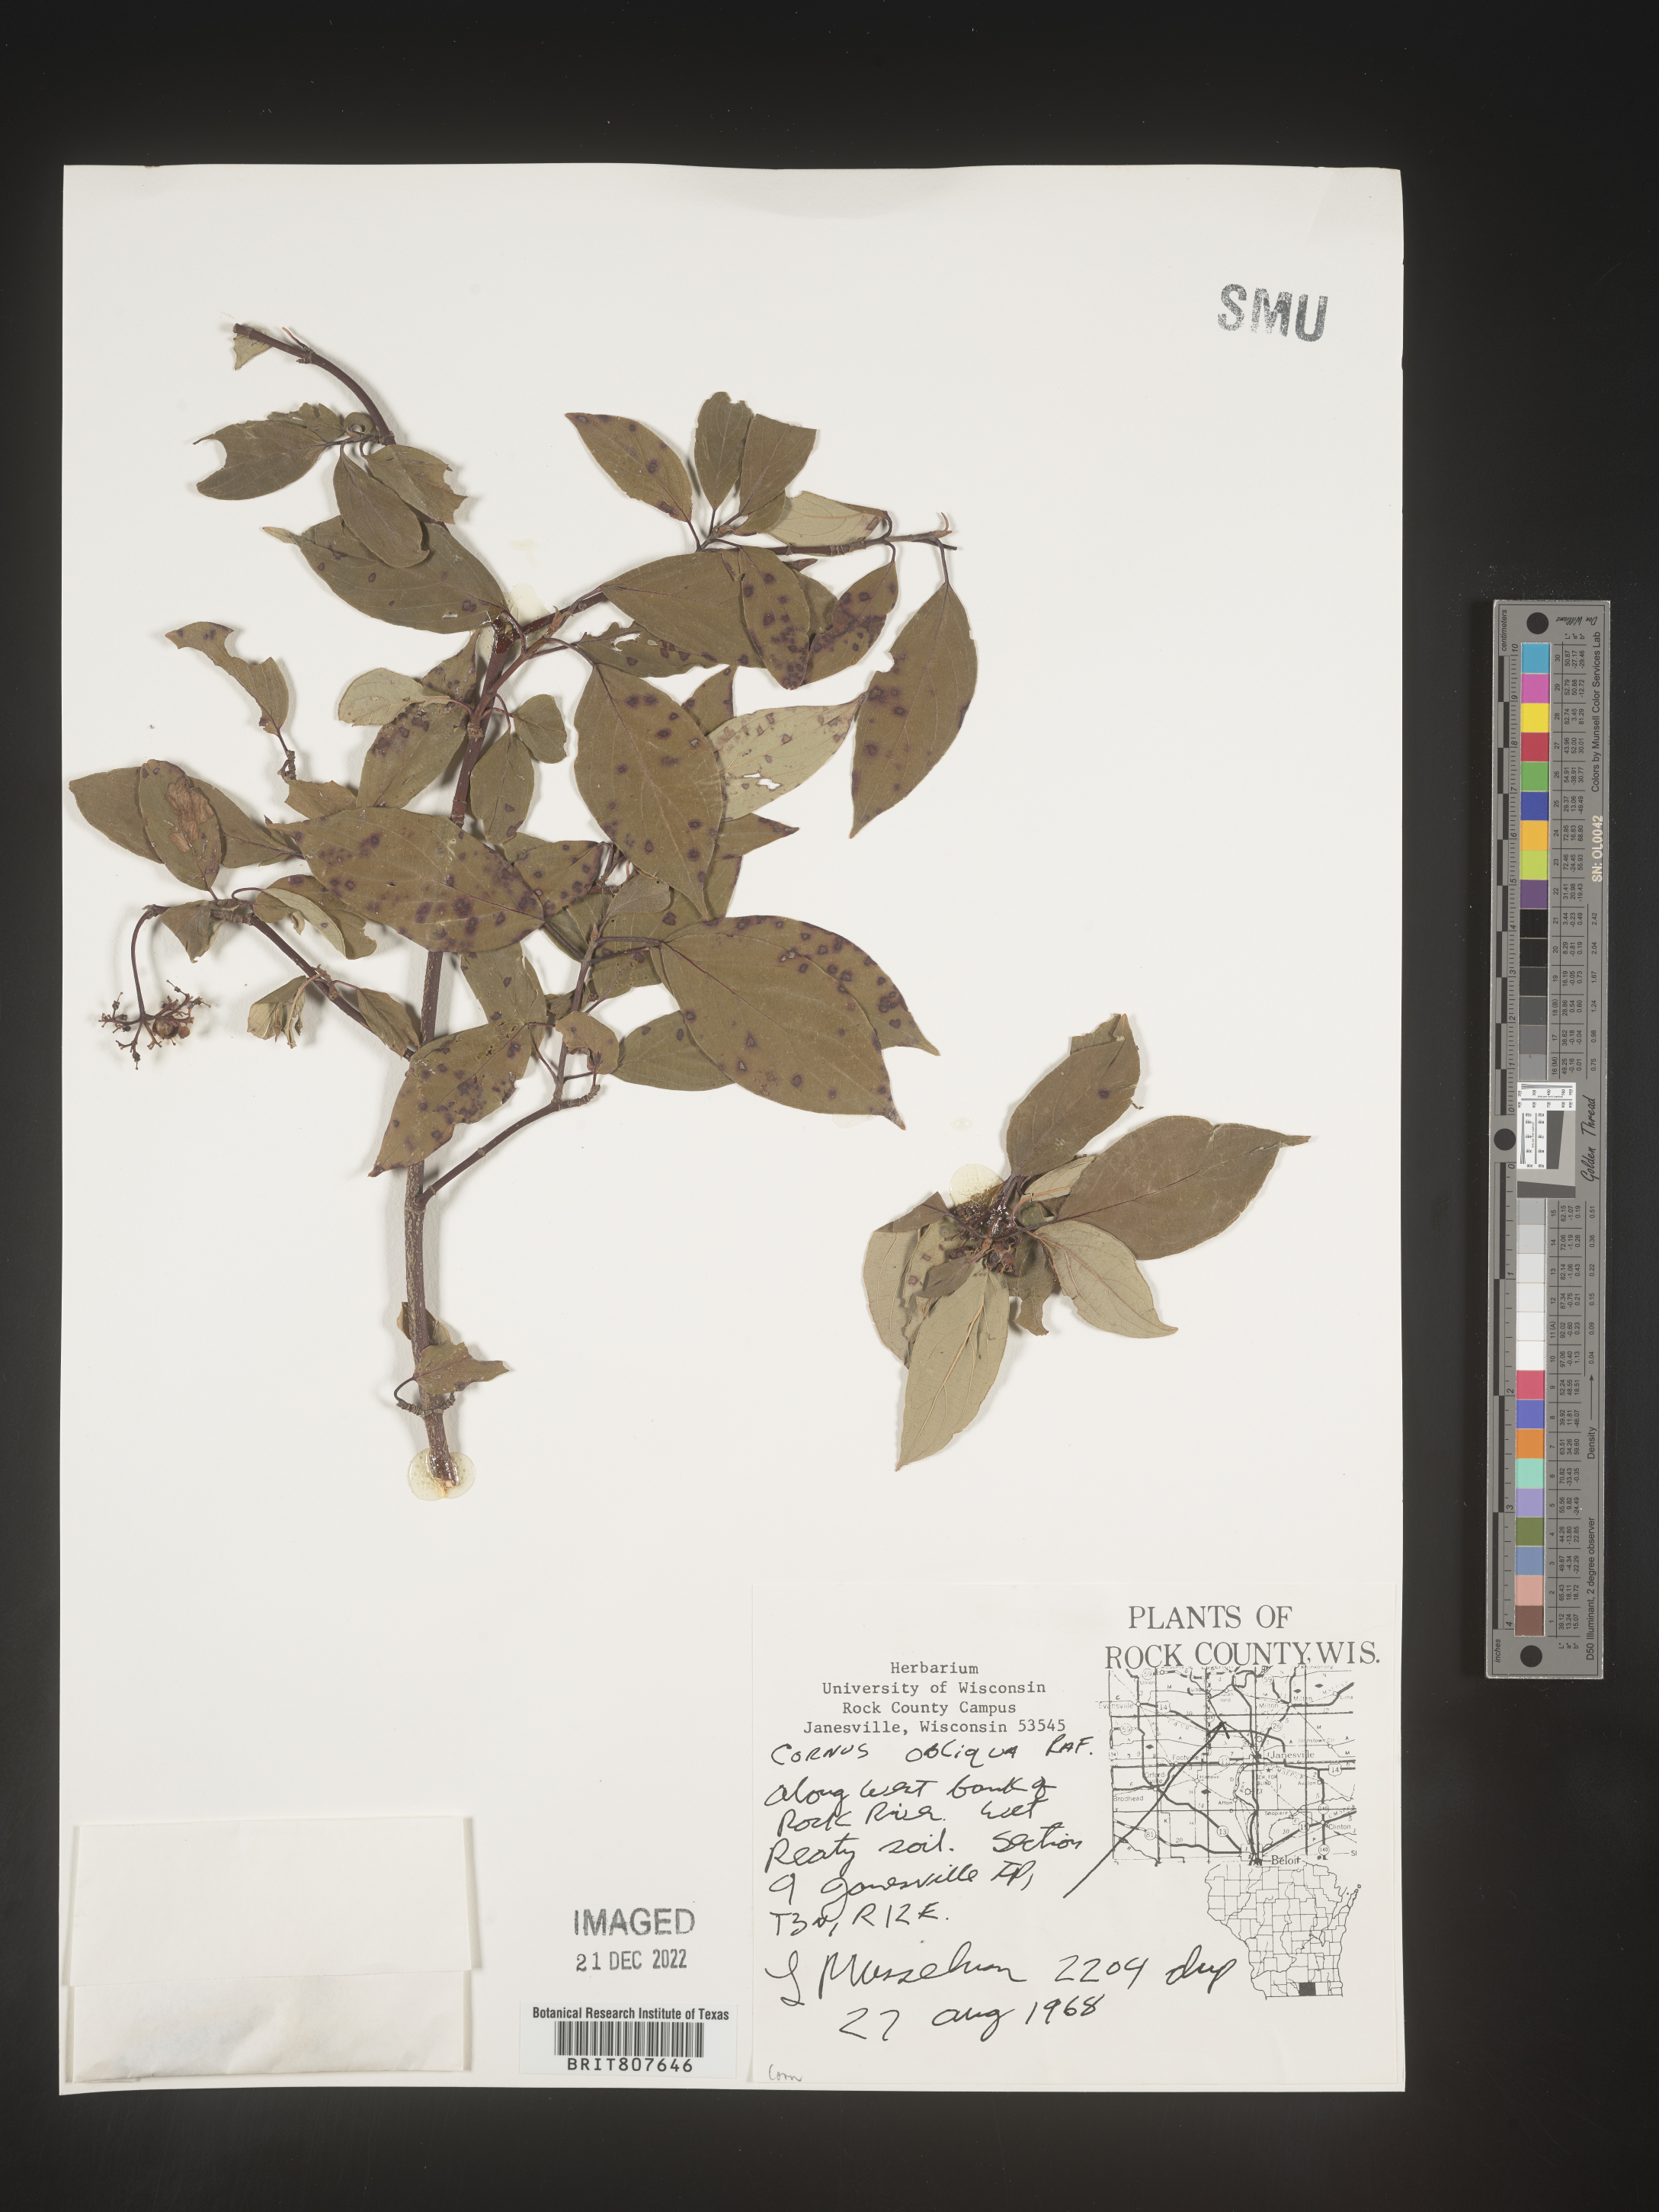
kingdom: Plantae
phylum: Tracheophyta
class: Magnoliopsida
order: Cornales
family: Cornaceae
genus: Cornus
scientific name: Cornus obliqua
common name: Pale dogwood
